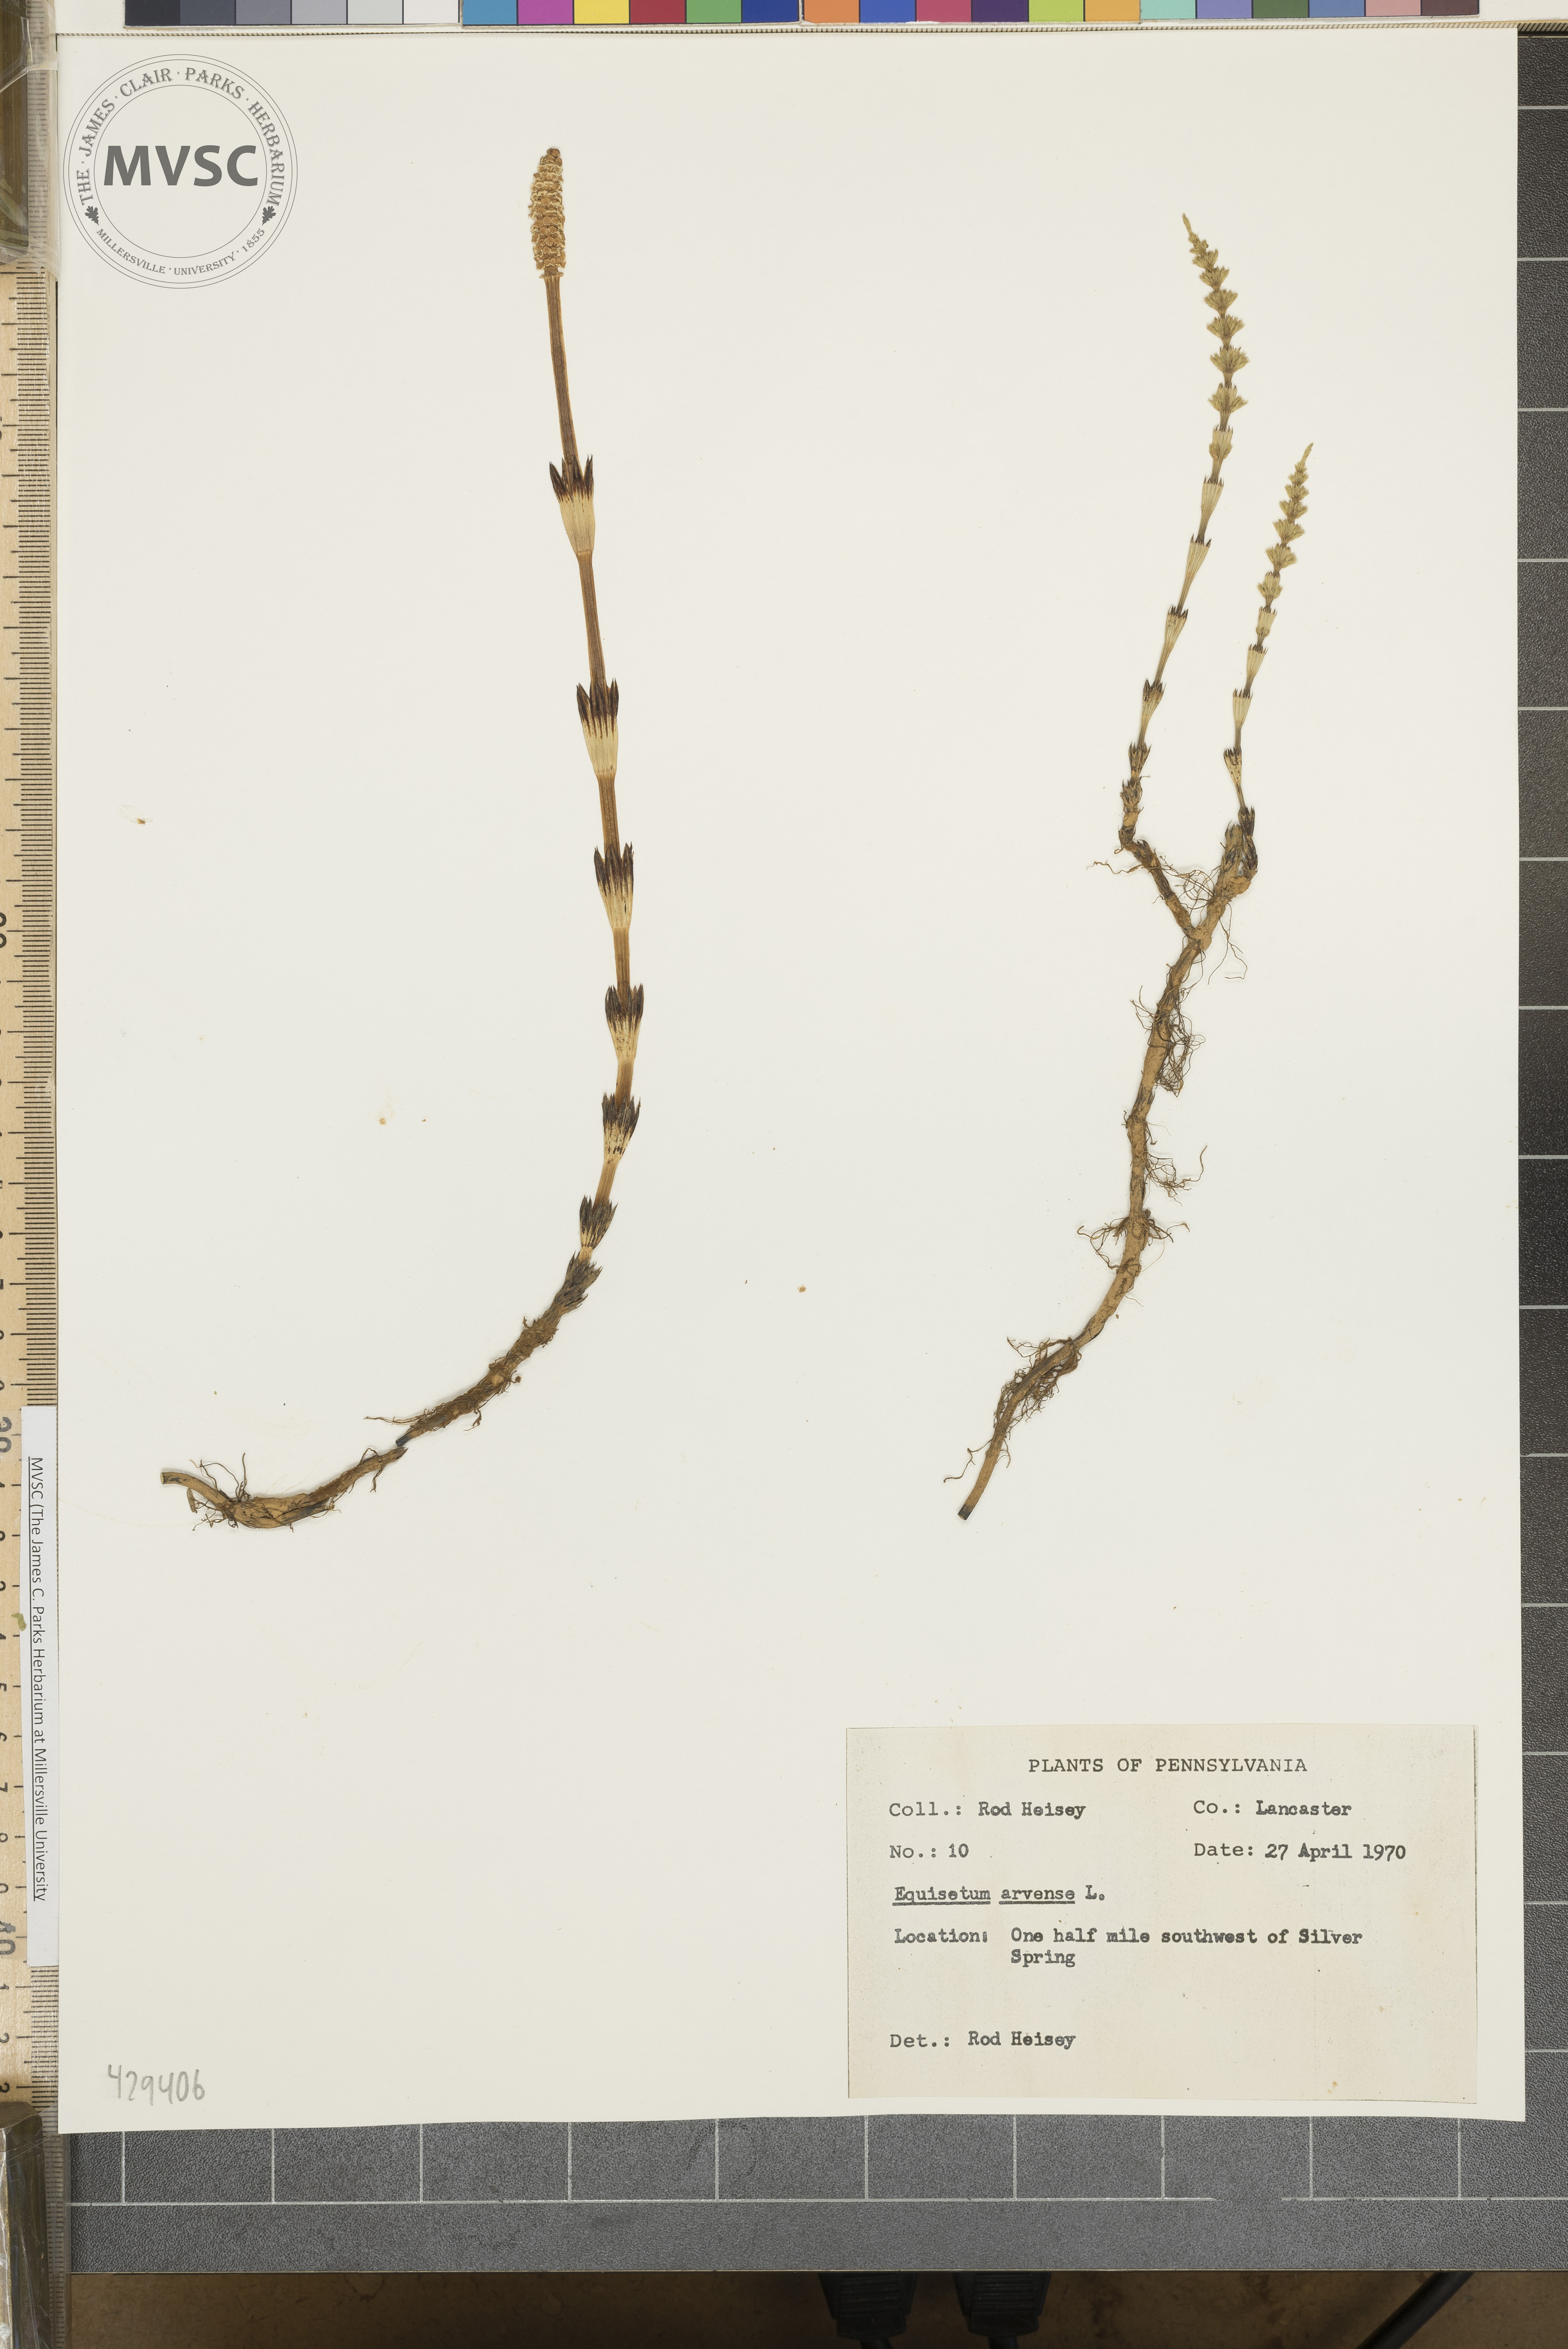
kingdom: Plantae
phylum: Tracheophyta
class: Polypodiopsida
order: Equisetales
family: Equisetaceae
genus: Equisetum
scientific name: Equisetum arvense
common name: Field horsetail
